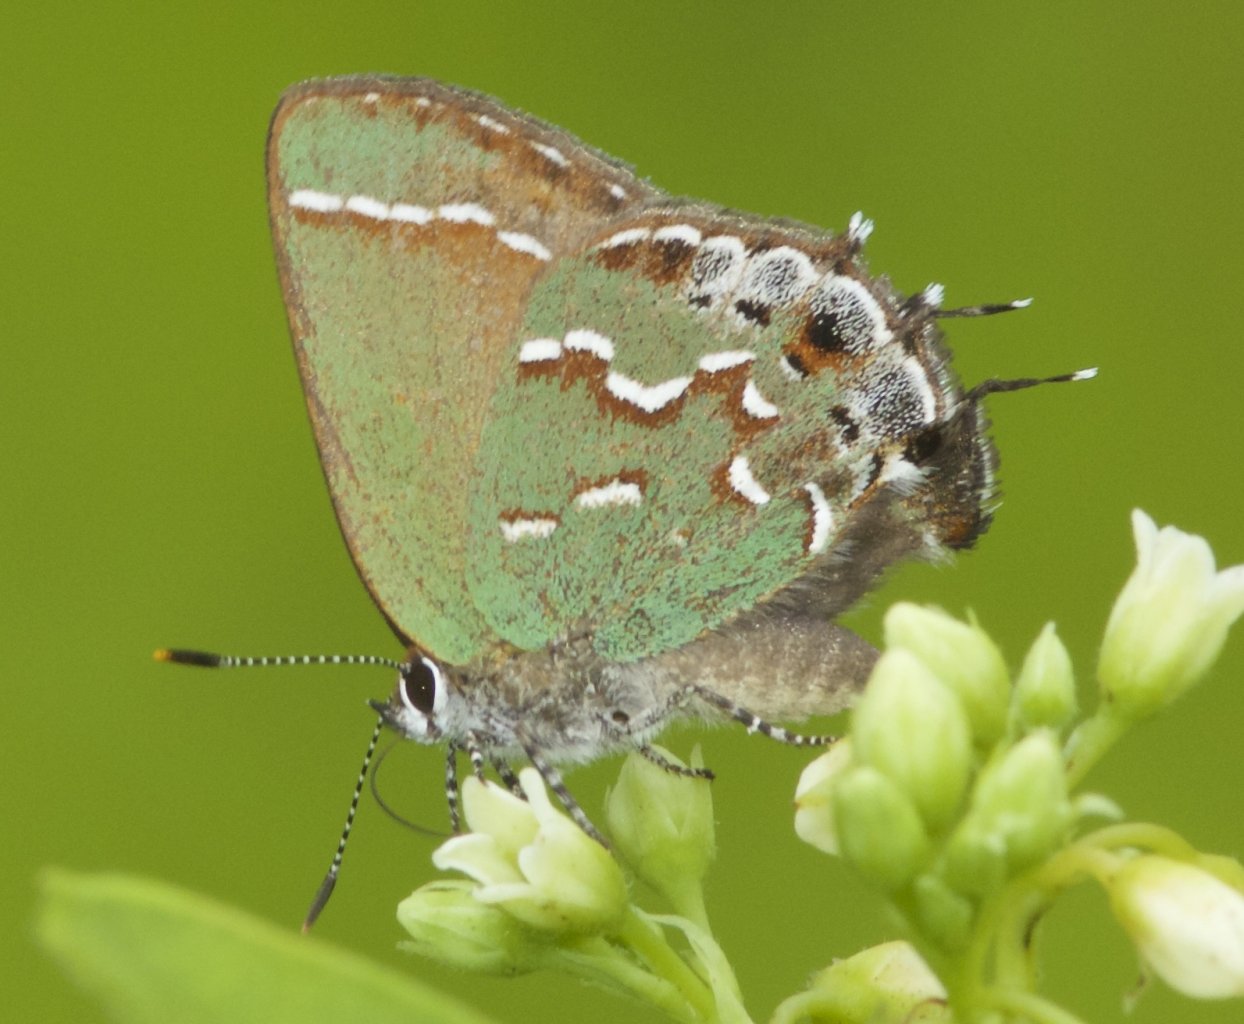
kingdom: Animalia
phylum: Arthropoda
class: Insecta
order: Lepidoptera
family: Lycaenidae
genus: Mitoura
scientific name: Mitoura gryneus
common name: Juniper Hairstreak
